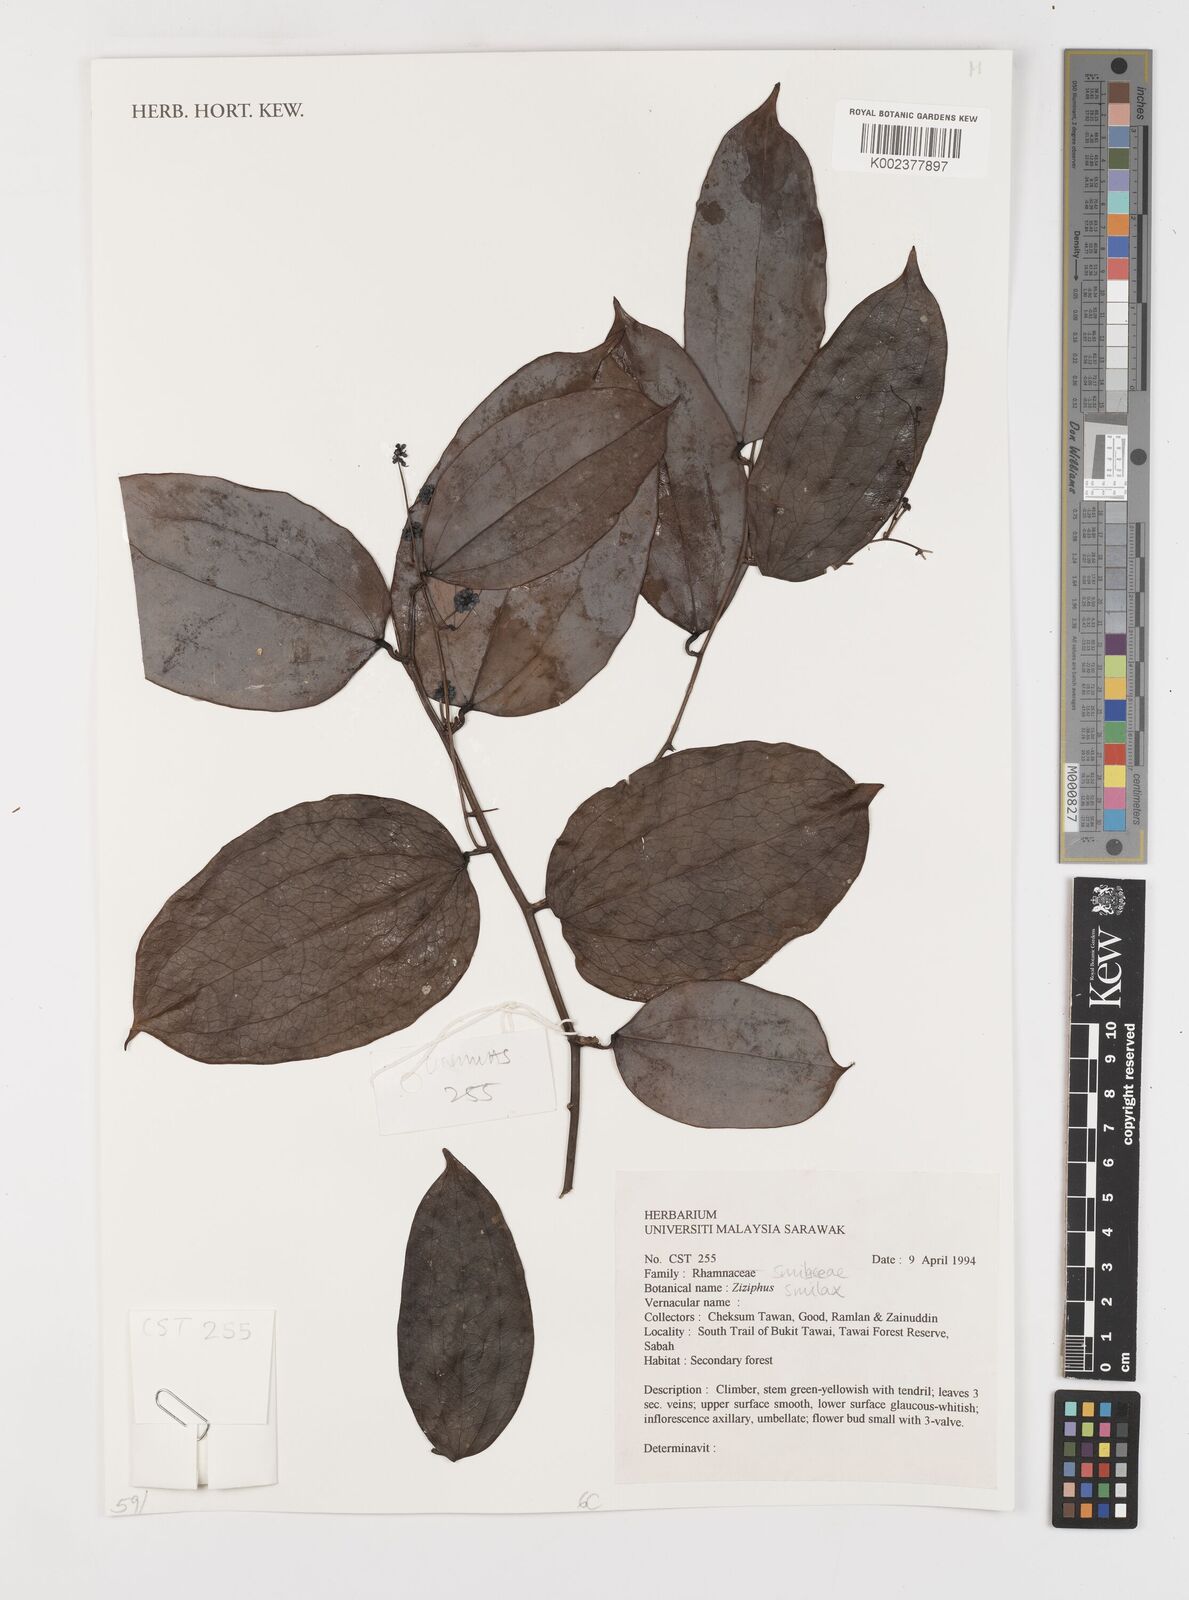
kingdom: Plantae
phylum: Tracheophyta
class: Liliopsida
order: Liliales
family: Smilacaceae
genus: Smilax
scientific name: Smilax
